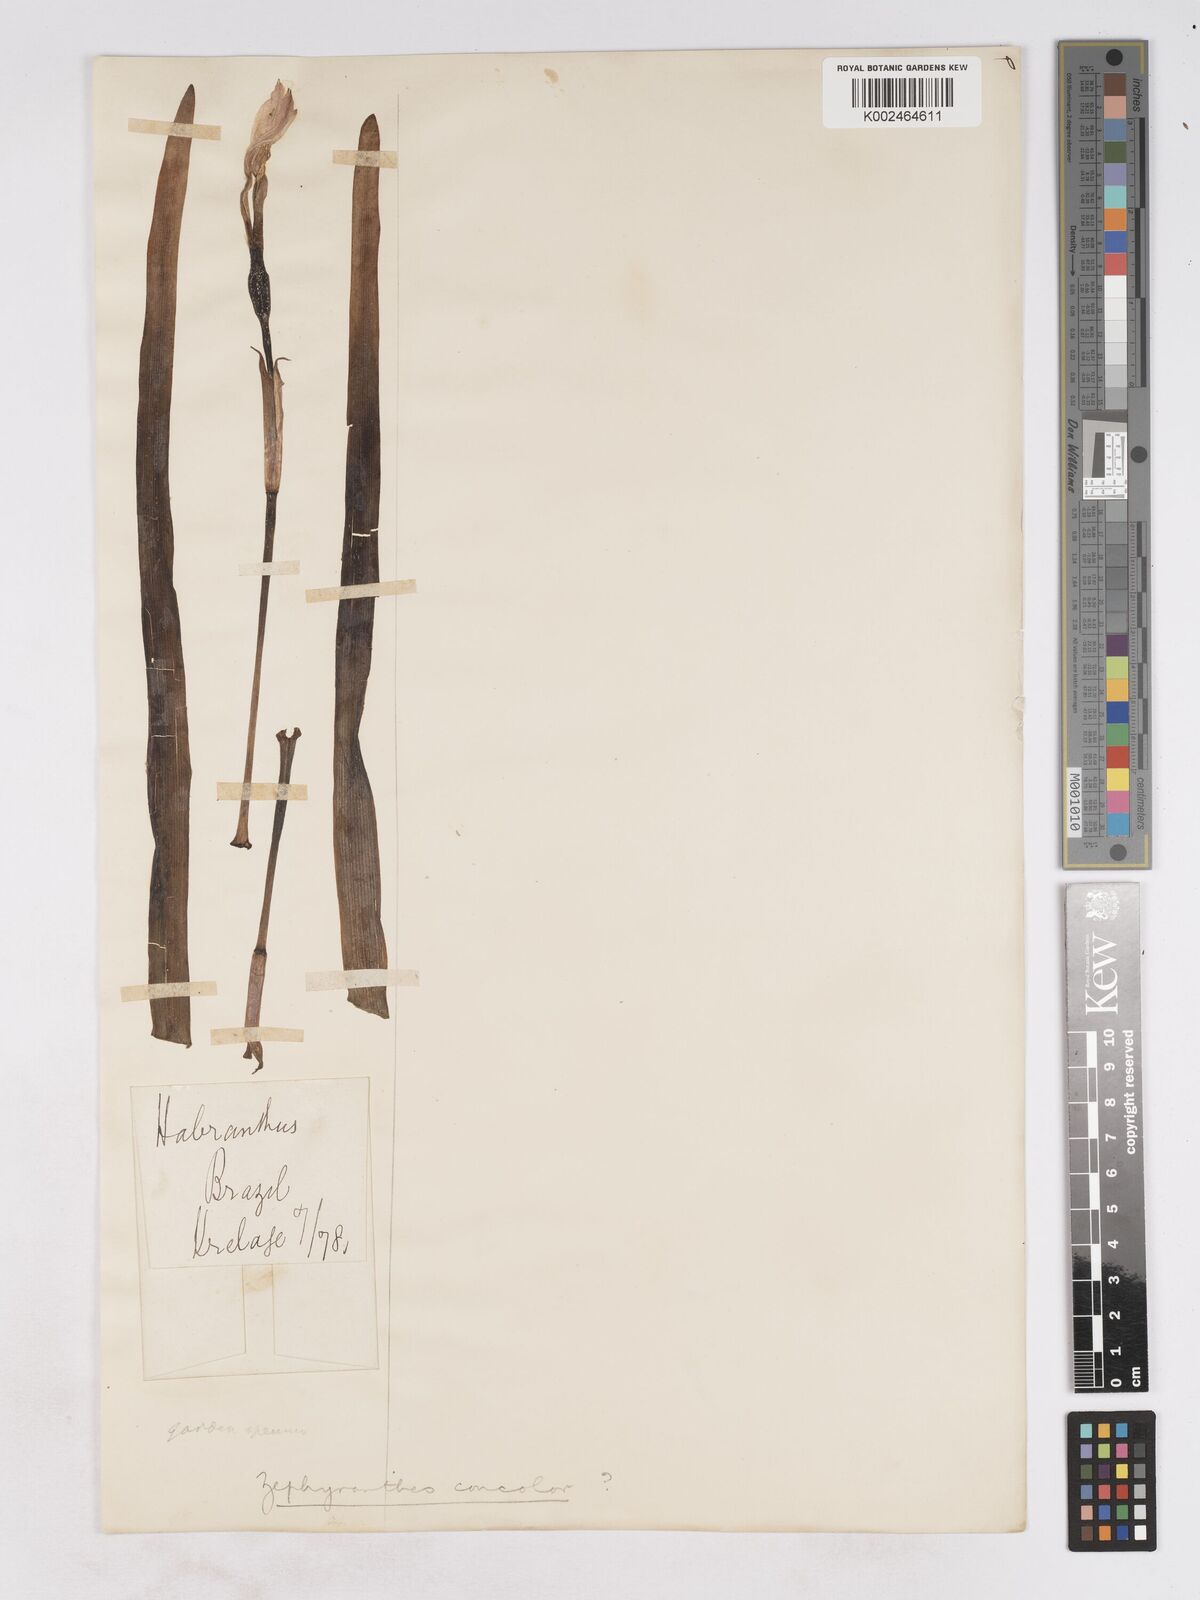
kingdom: Plantae
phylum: Tracheophyta
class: Liliopsida
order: Asparagales
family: Amaryllidaceae
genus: Zephyranthes
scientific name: Zephyranthes concolor
